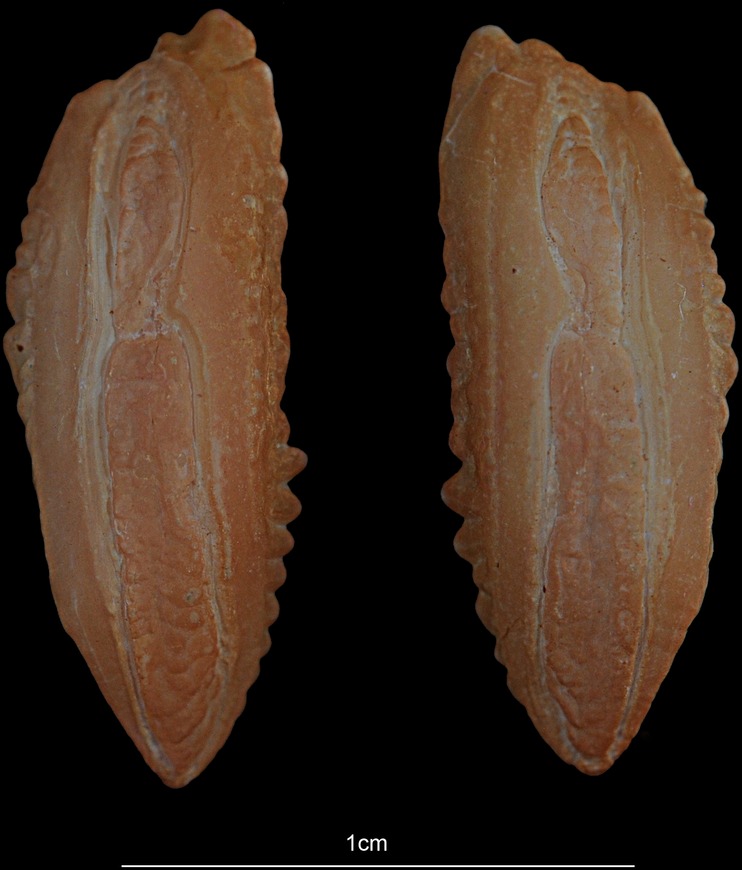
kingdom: Animalia
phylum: Chordata
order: Gadiformes
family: Gadidae
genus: Pollachius
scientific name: Pollachius virens
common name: Saithe
